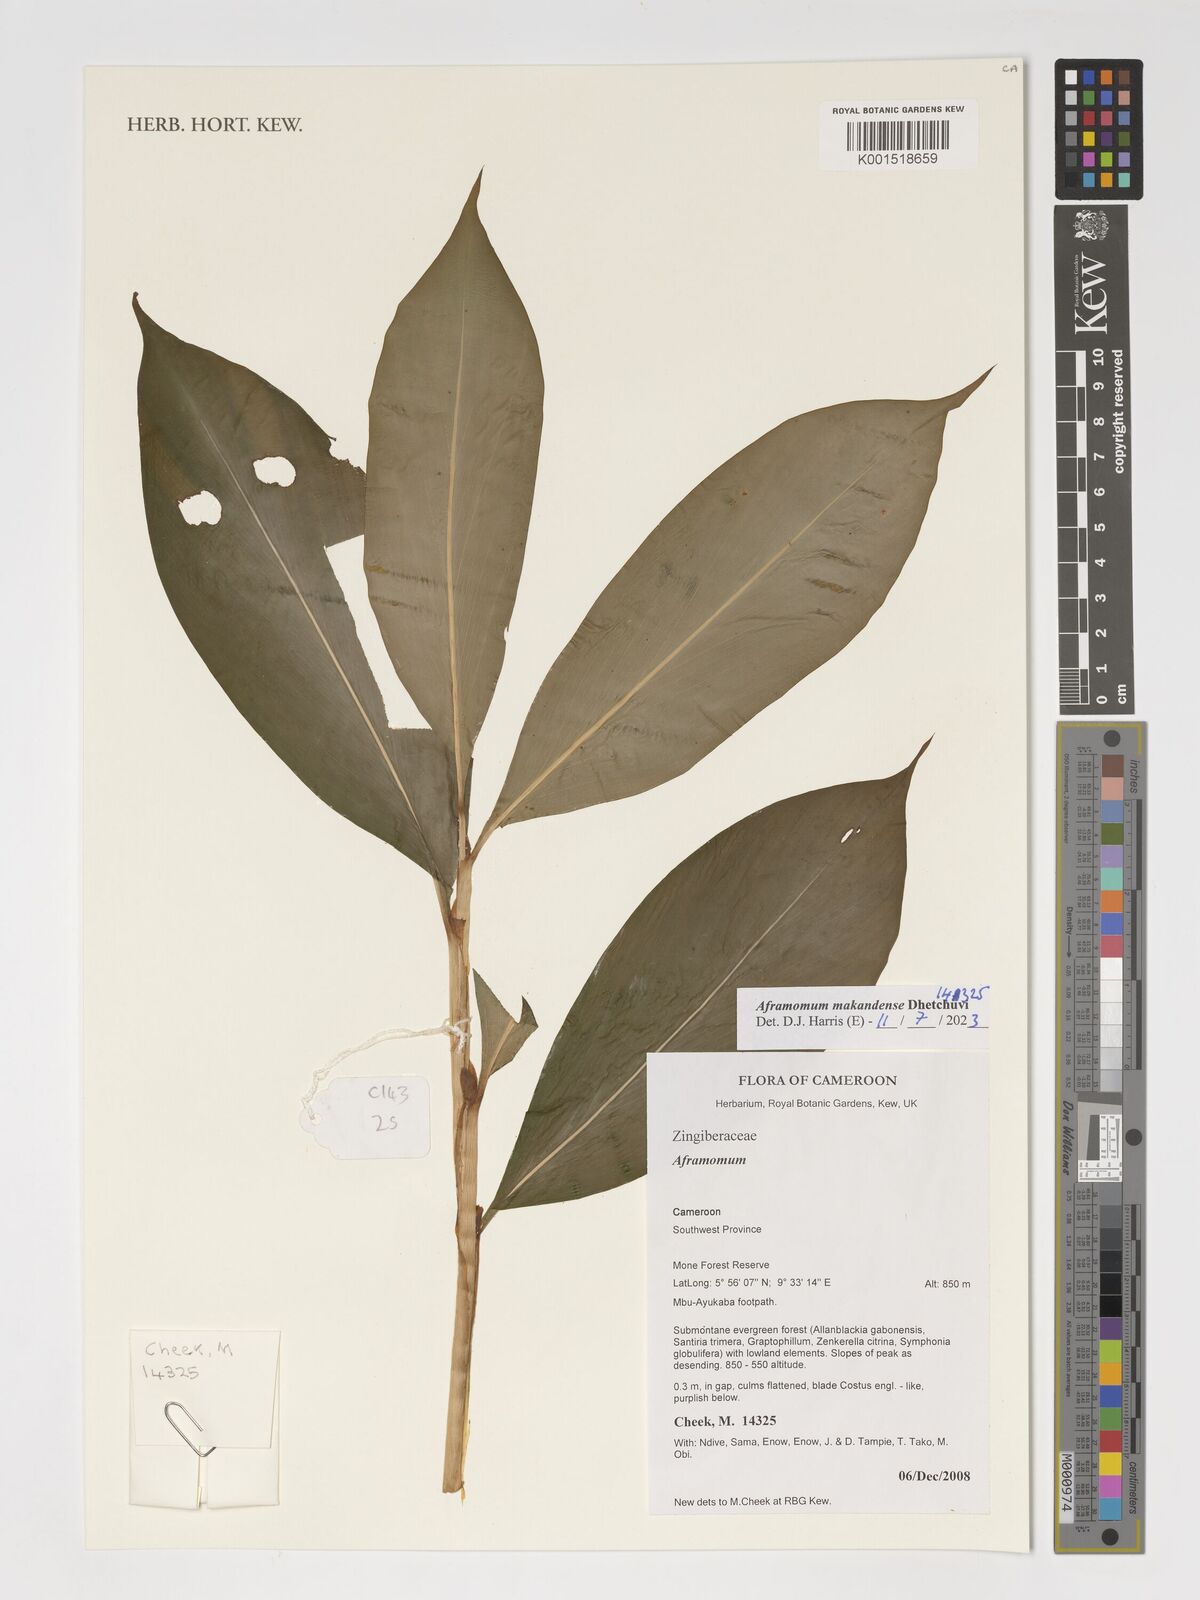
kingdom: Plantae
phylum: Tracheophyta
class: Liliopsida
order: Zingiberales
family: Zingiberaceae
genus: Aframomum
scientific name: Aframomum makandensis
